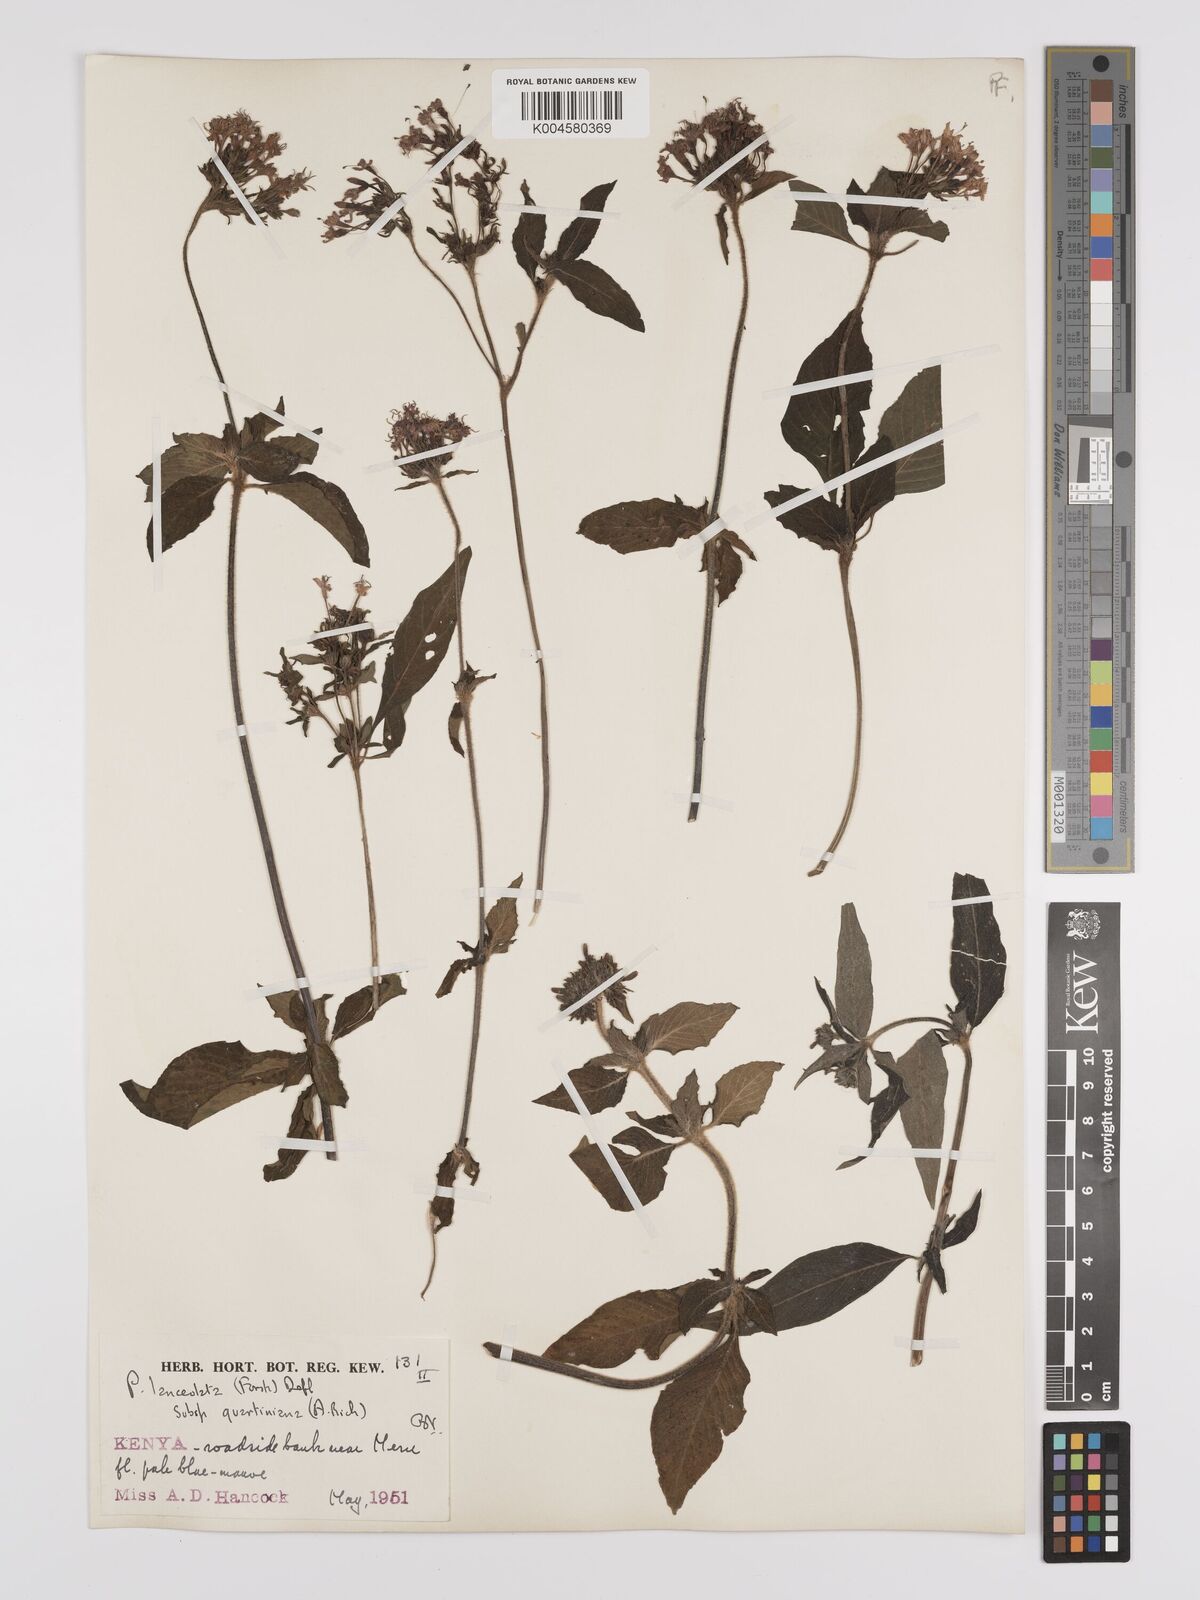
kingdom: Plantae
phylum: Tracheophyta
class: Magnoliopsida
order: Gentianales
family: Rubiaceae
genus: Pentas
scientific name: Pentas lanceolata
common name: Egyptian starcluster
